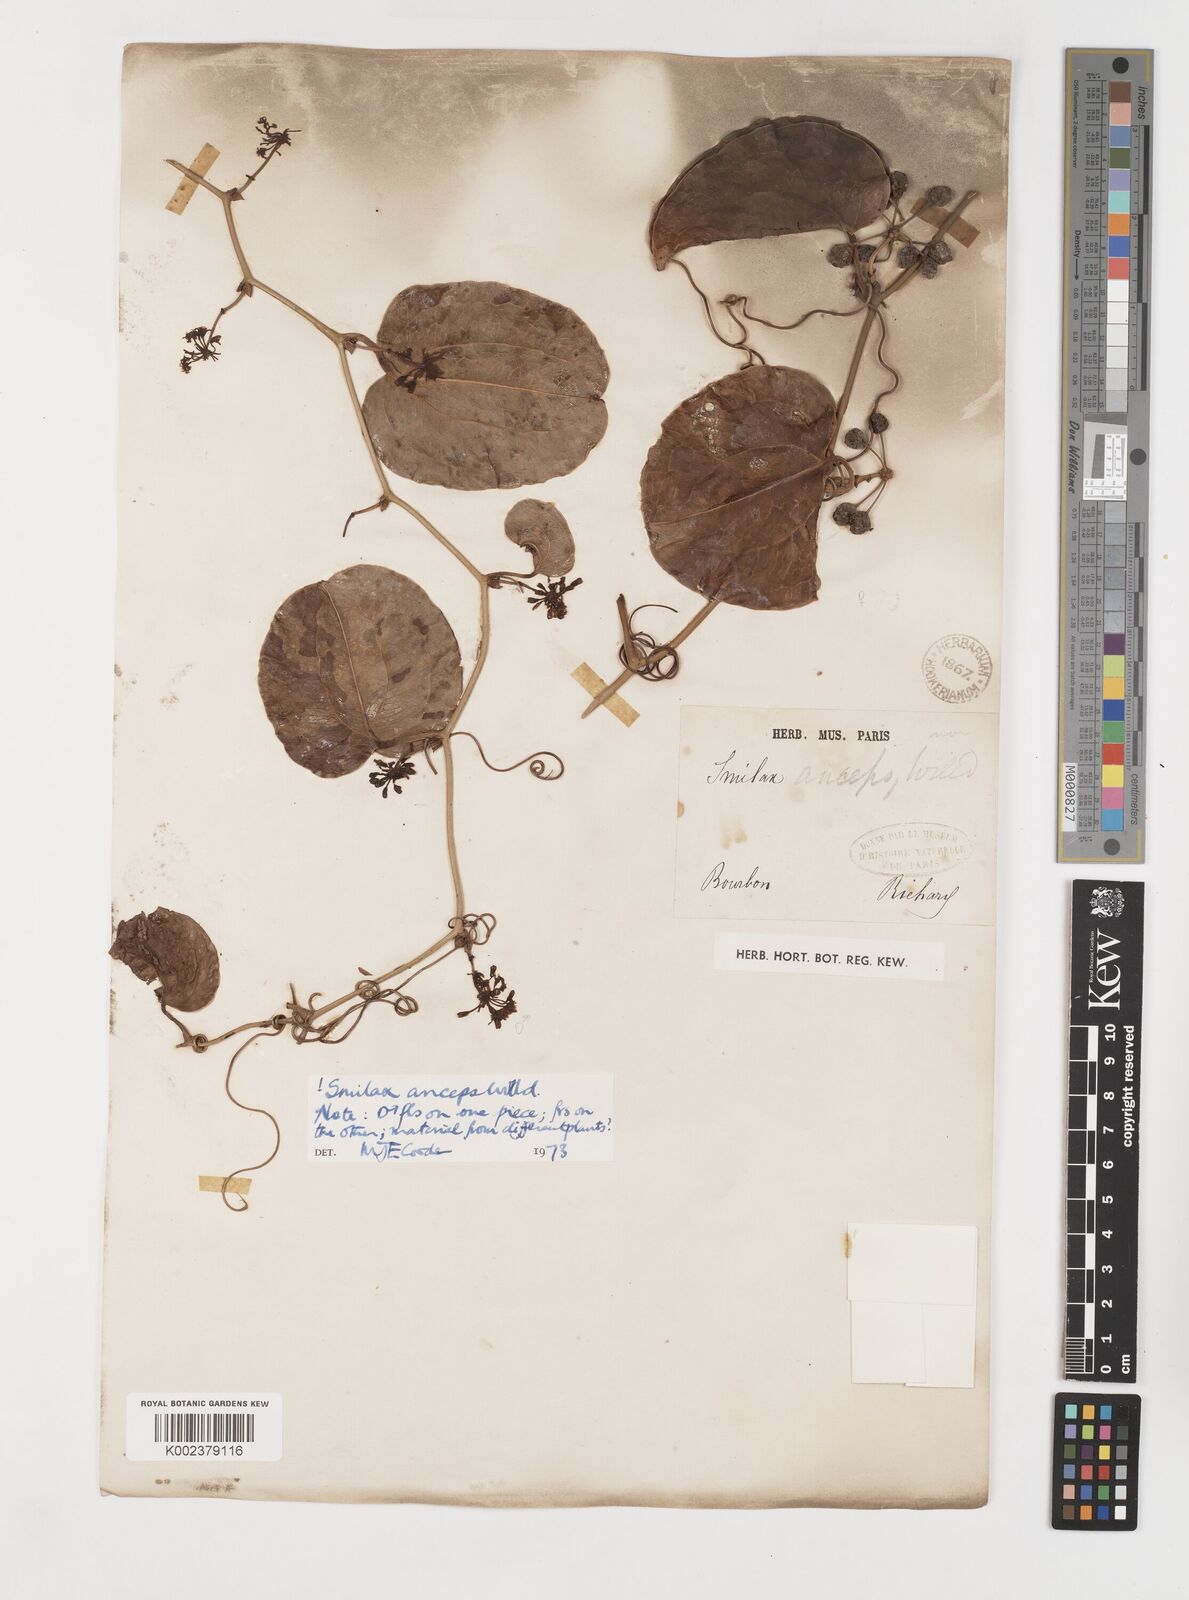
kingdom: Plantae
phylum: Tracheophyta
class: Liliopsida
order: Liliales
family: Smilacaceae
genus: Smilax
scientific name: Smilax anceps
